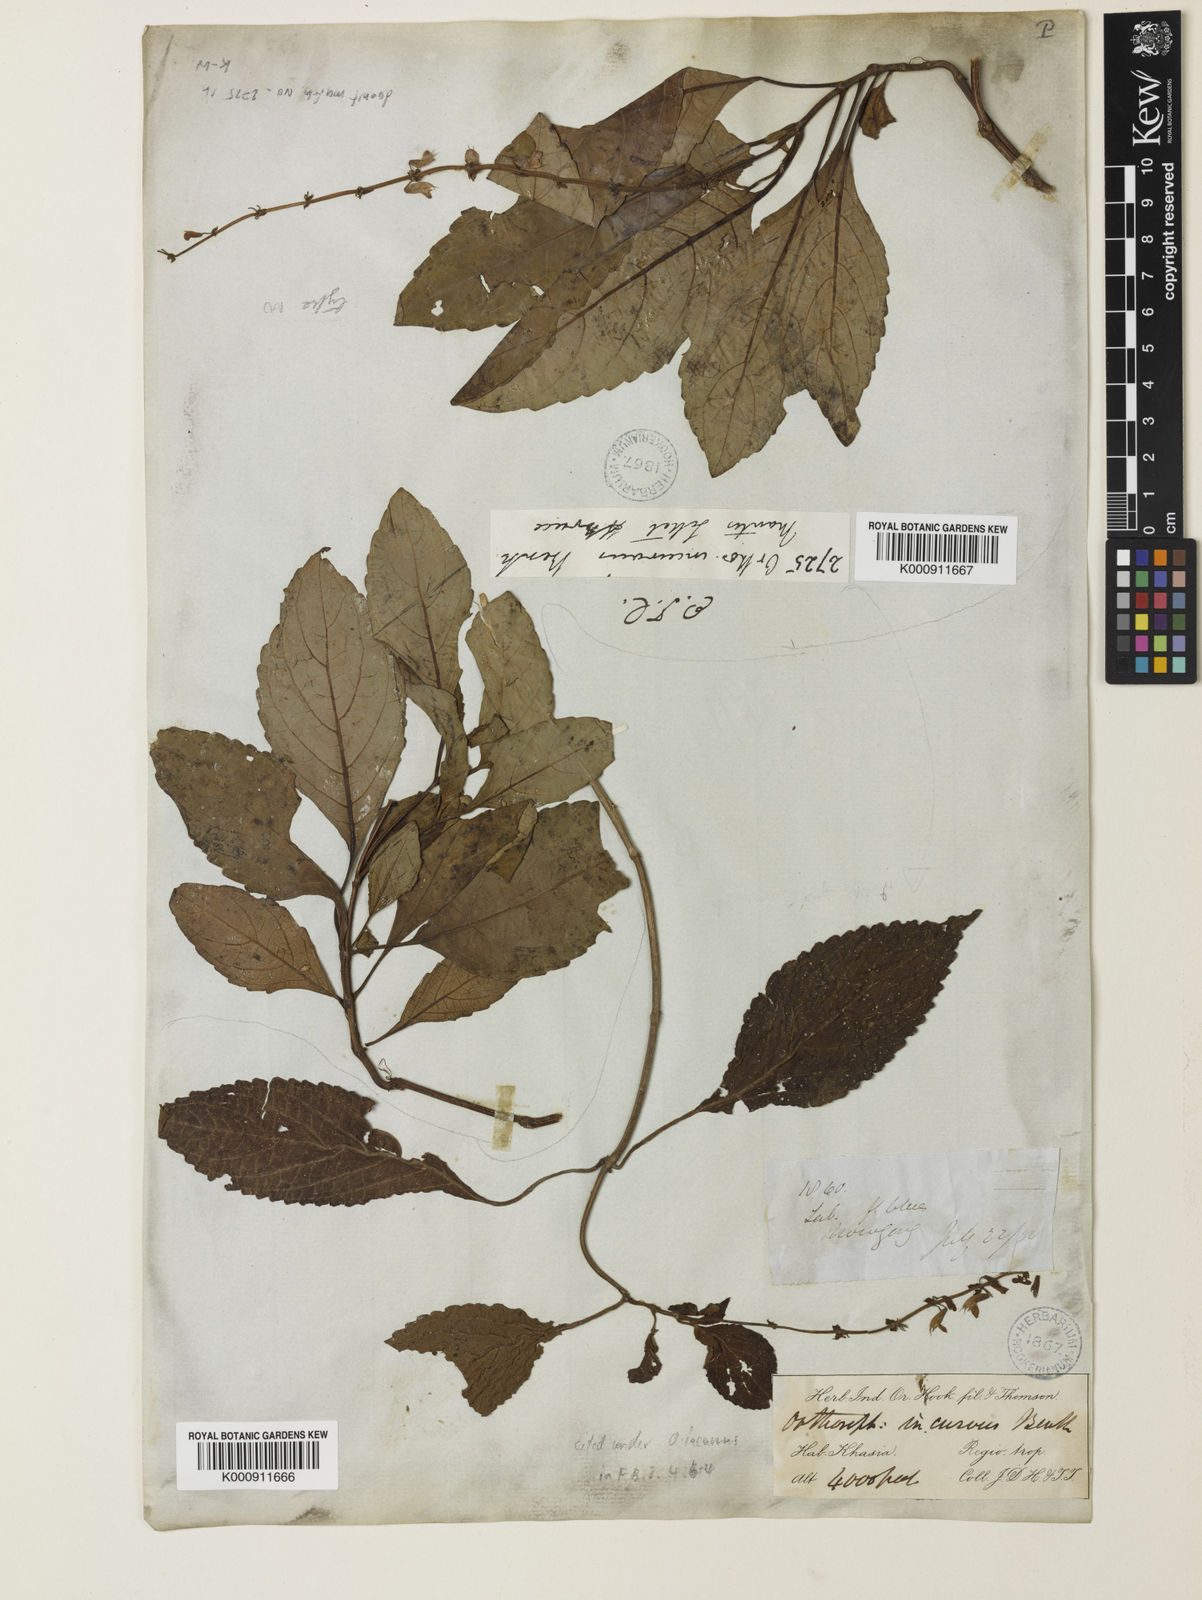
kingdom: Plantae
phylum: Tracheophyta
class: Magnoliopsida
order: Lamiales
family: Lamiaceae
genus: Orthosiphon
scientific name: Orthosiphon incurvus
